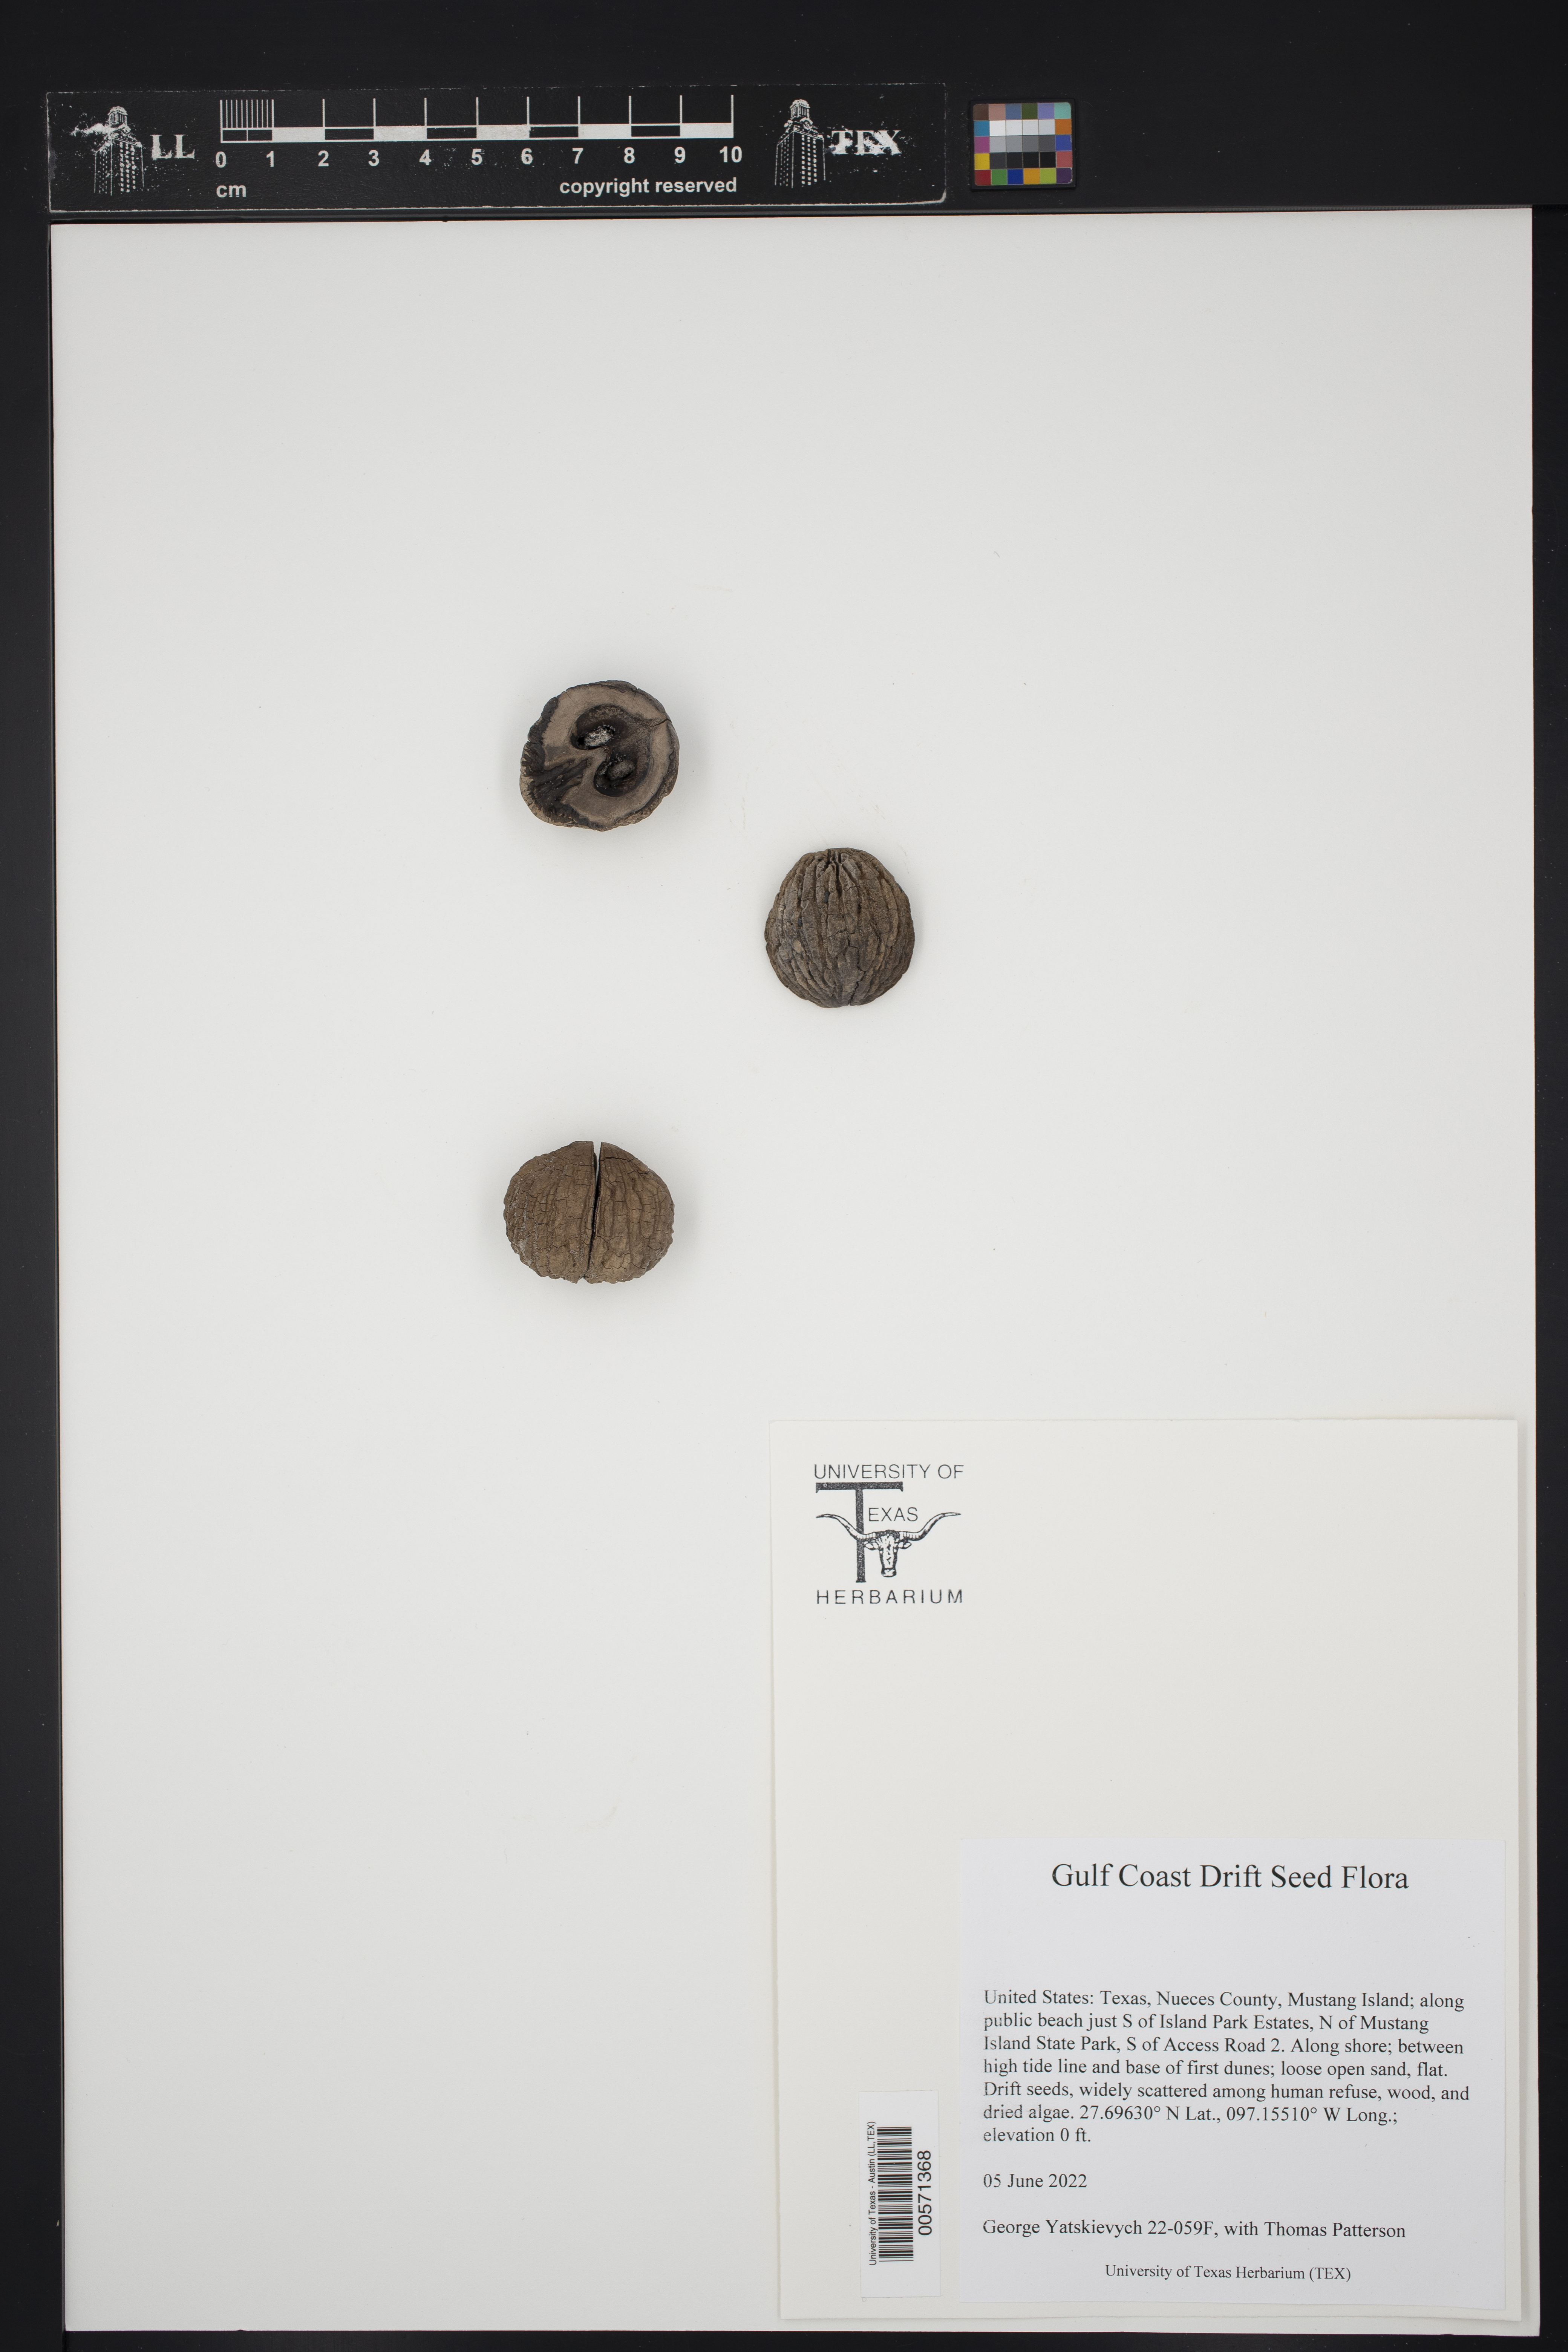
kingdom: Plantae
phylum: Tracheophyta
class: Magnoliopsida
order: Fagales
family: Juglandaceae
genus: Juglans
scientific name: Juglans nigra
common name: Black walnut
